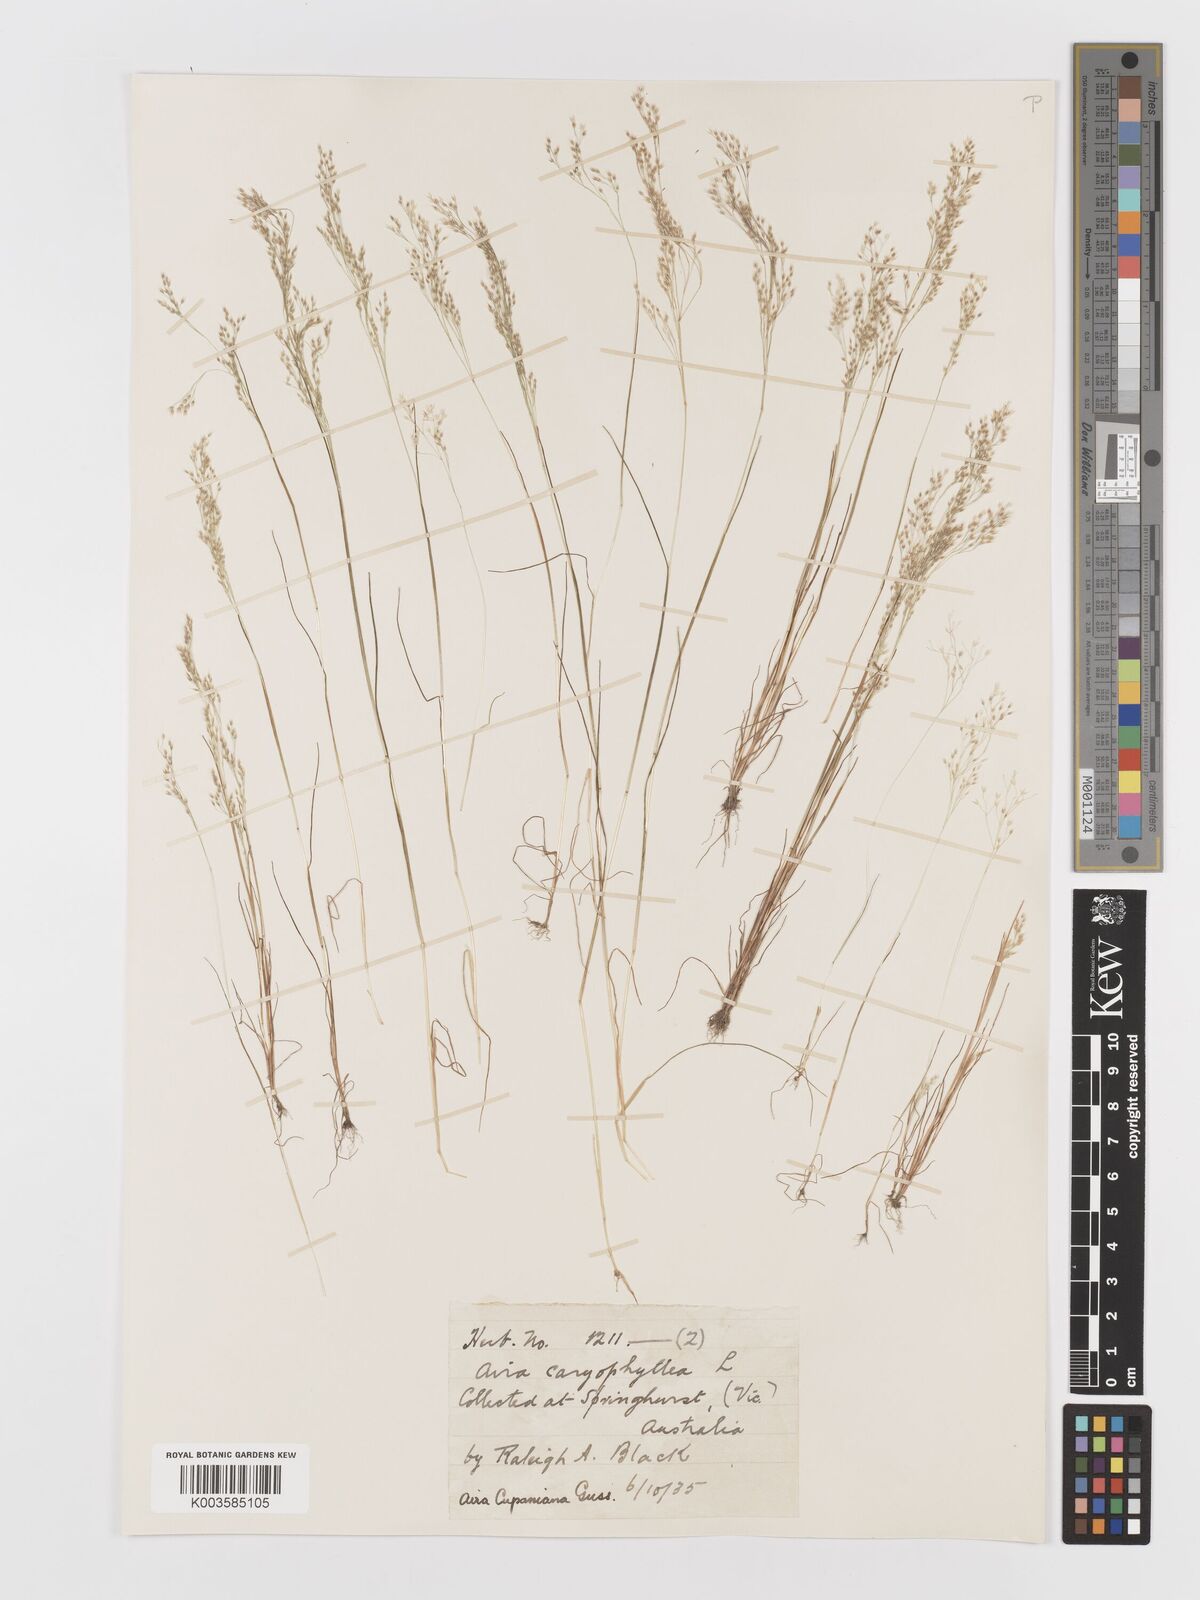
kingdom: Plantae
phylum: Tracheophyta
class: Liliopsida
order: Poales
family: Poaceae
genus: Aira
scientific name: Aira caryophyllea
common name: Silver hairgrass
